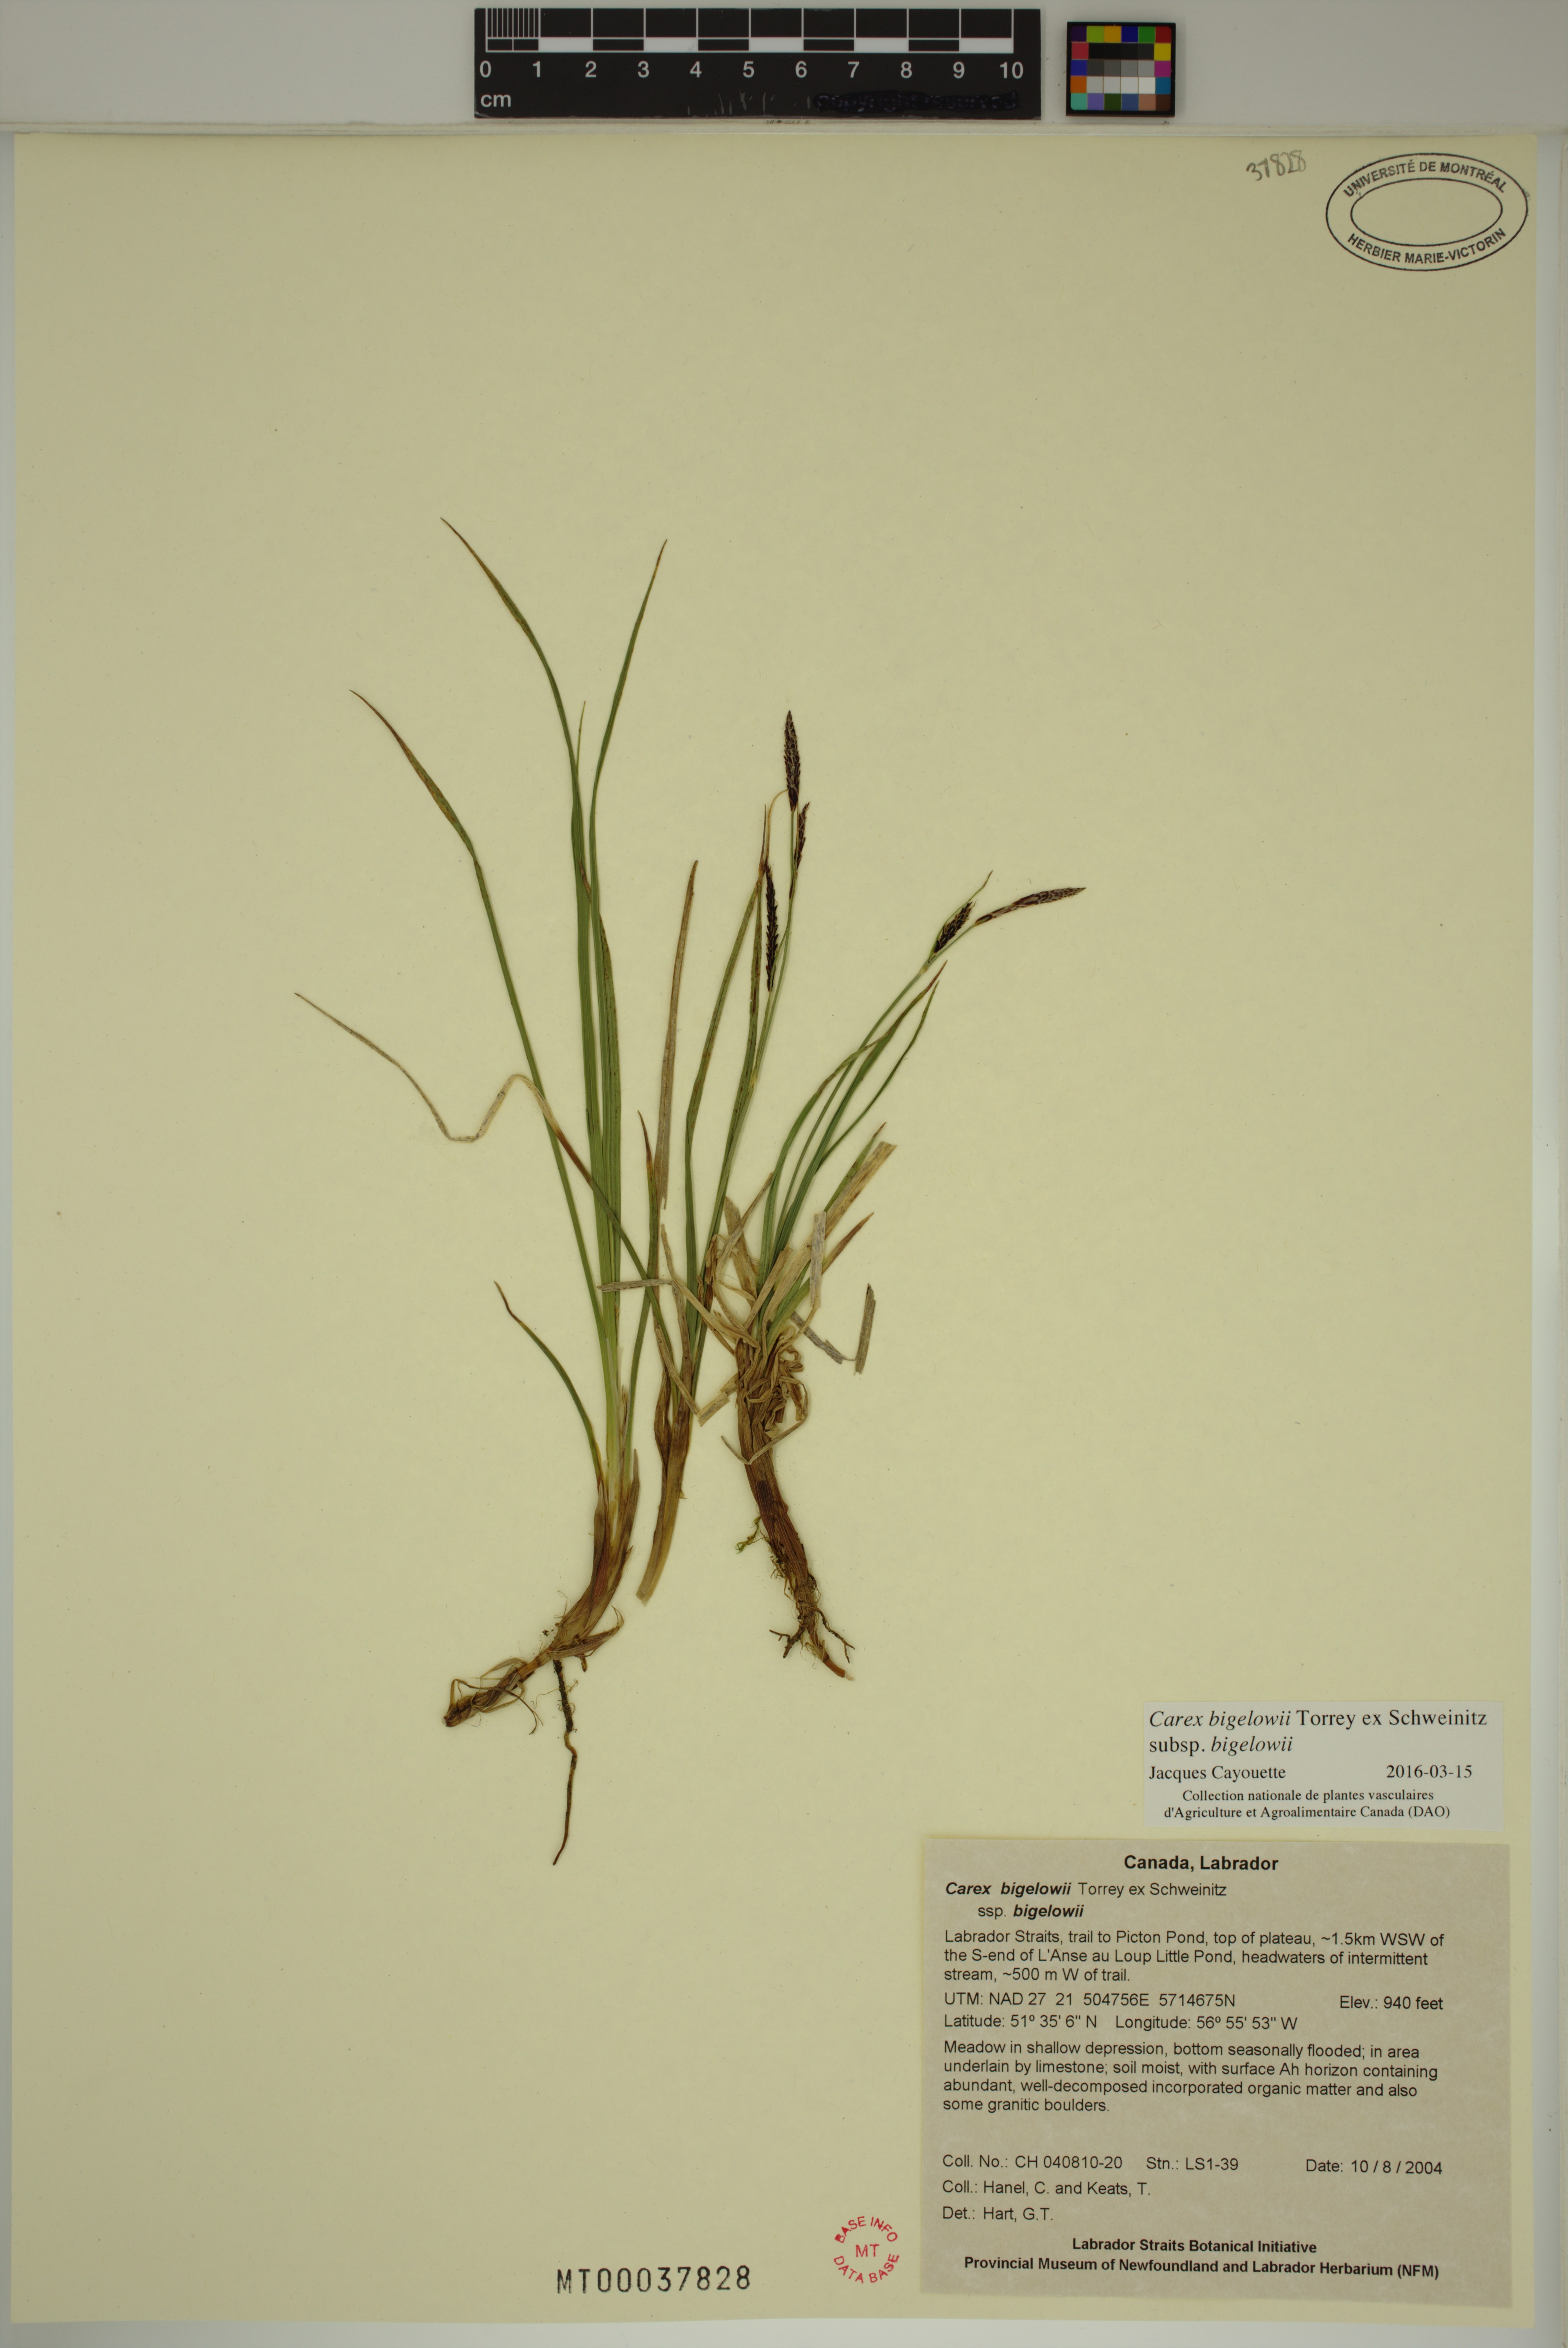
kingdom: Plantae
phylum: Tracheophyta
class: Liliopsida
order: Poales
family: Cyperaceae
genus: Carex
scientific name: Carex bigelowii
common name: Stiff sedge
